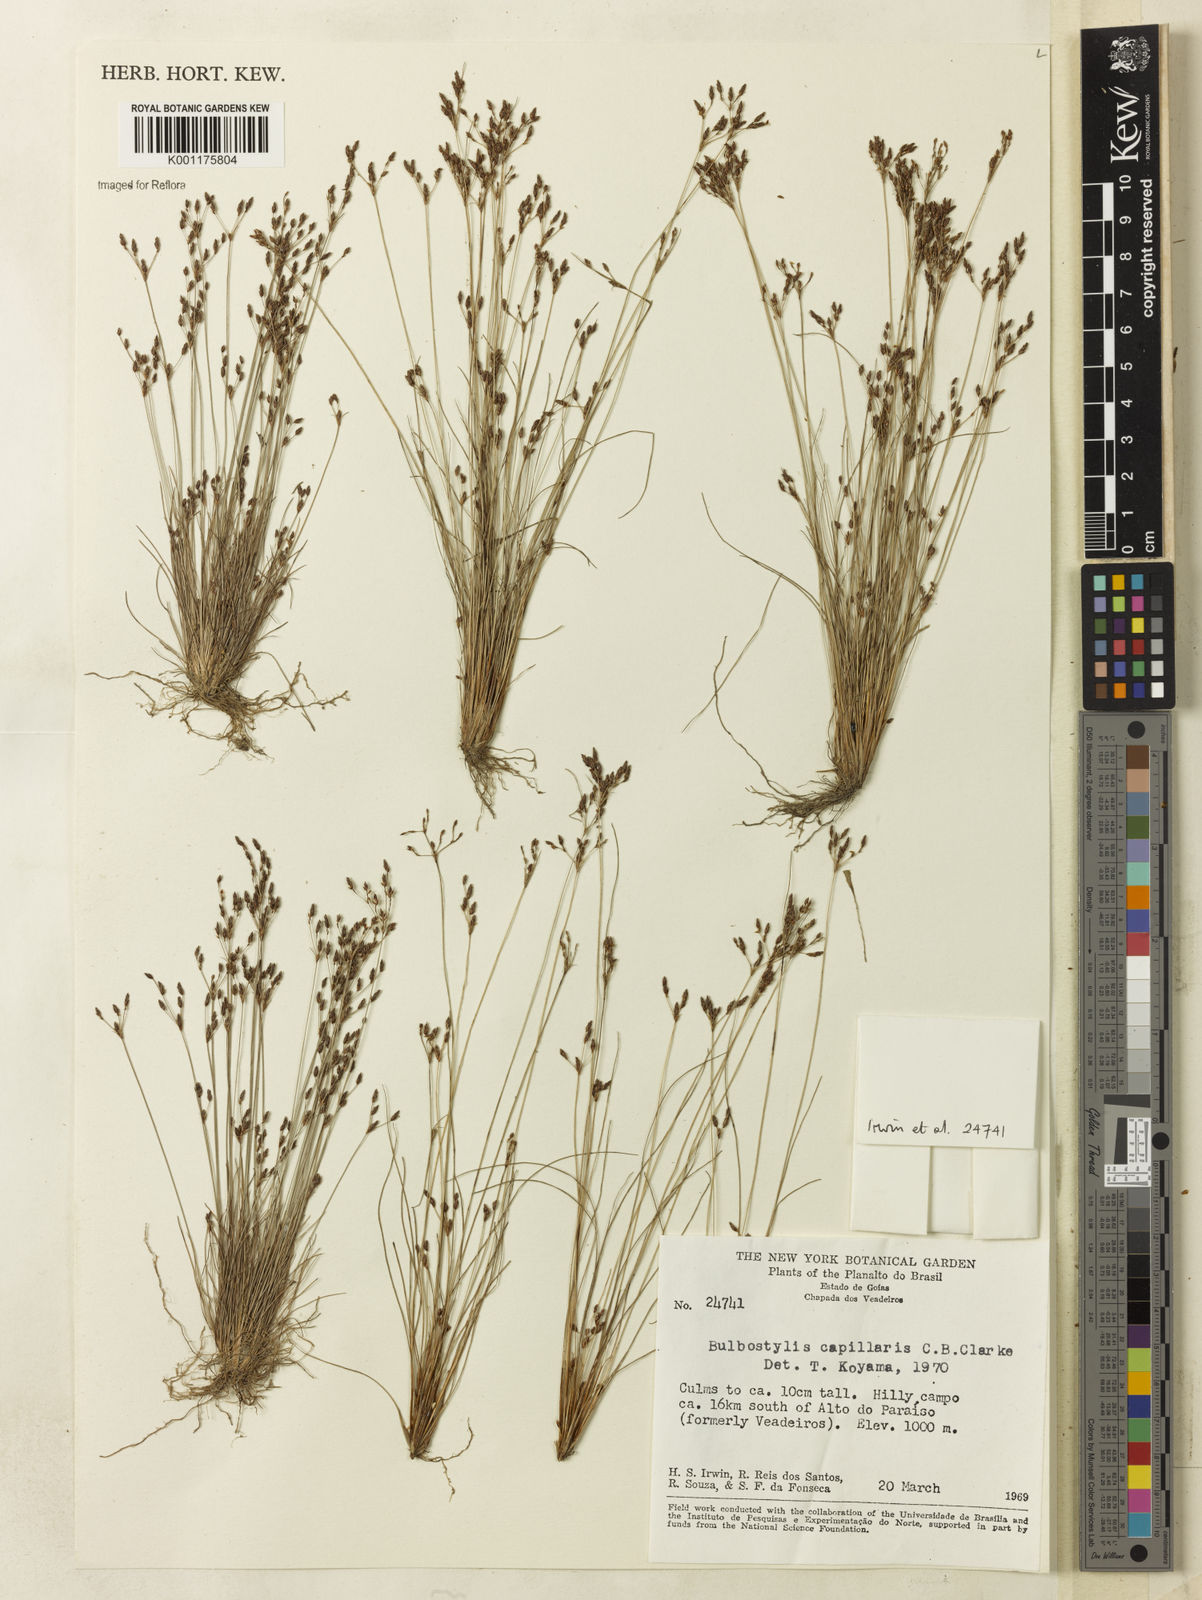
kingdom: Plantae
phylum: Tracheophyta
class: Liliopsida
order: Poales
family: Cyperaceae
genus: Bulbostylis
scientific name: Bulbostylis capillaris
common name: Densetuft hairsedge
